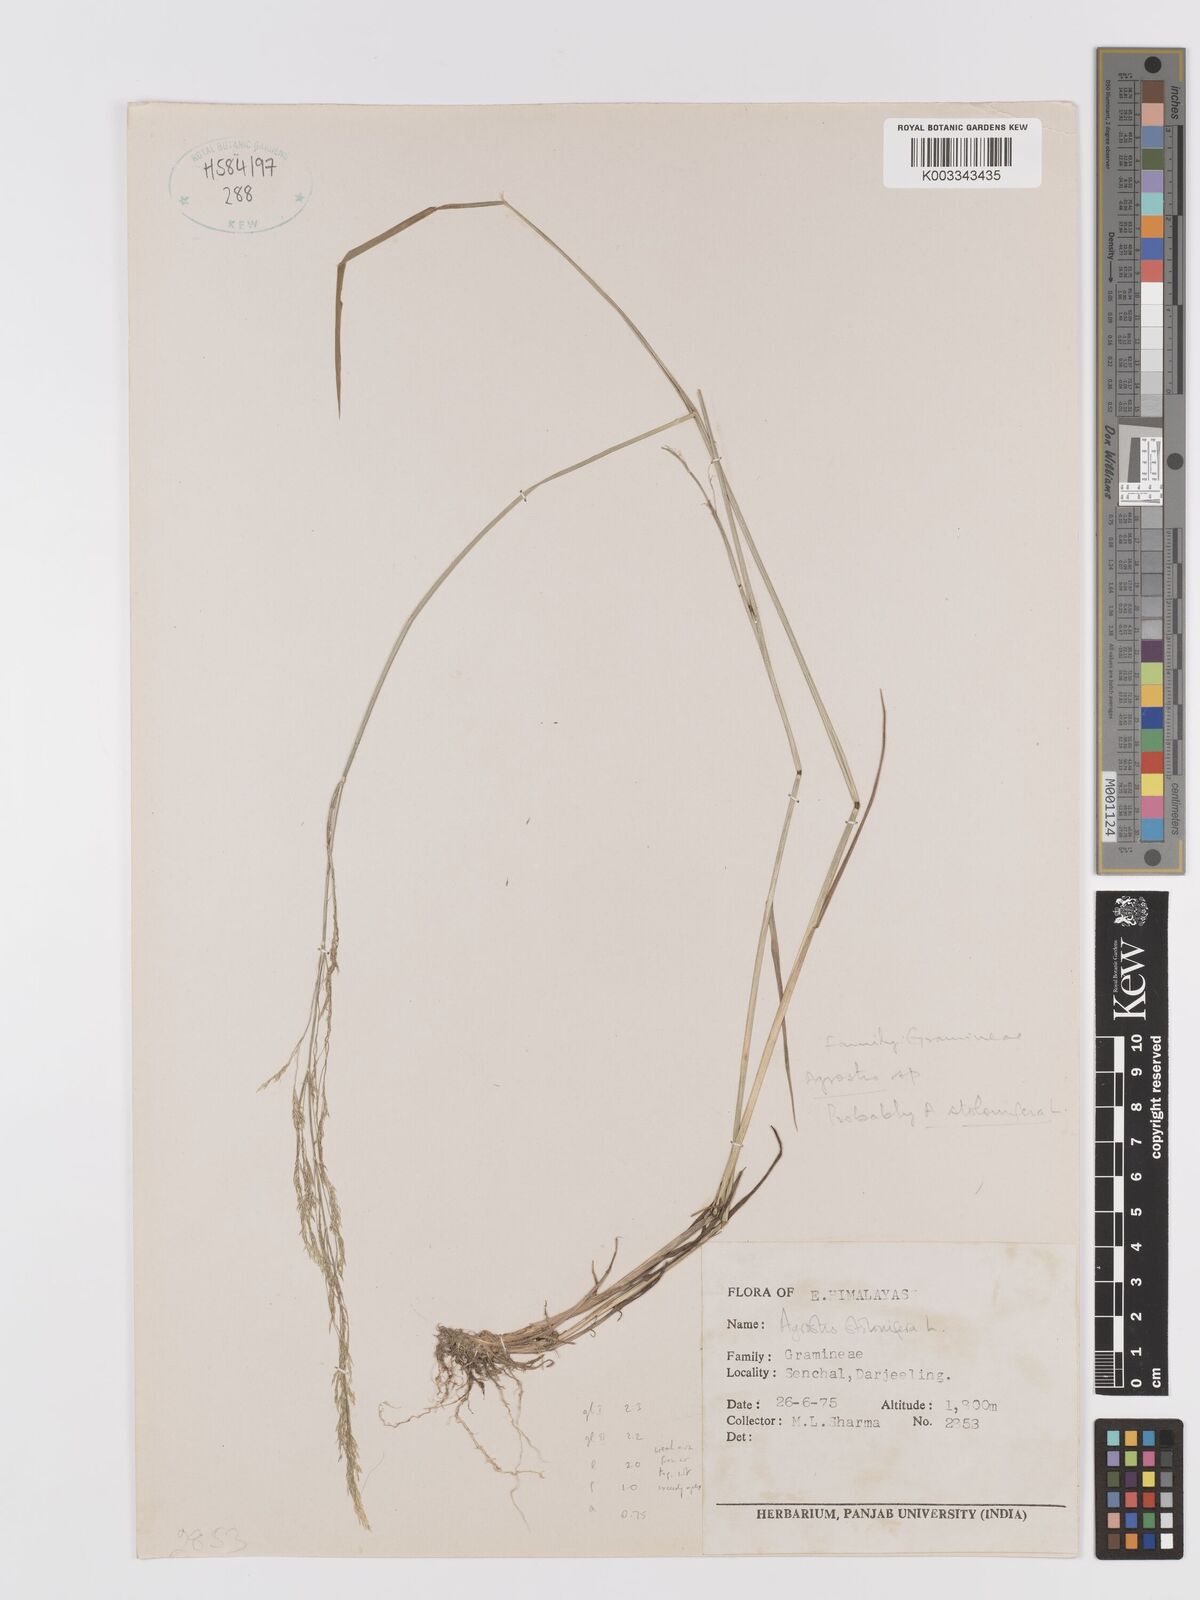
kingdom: Plantae
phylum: Tracheophyta
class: Liliopsida
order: Poales
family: Poaceae
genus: Agrostis
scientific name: Agrostis stolonifera
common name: Creeping bentgrass
